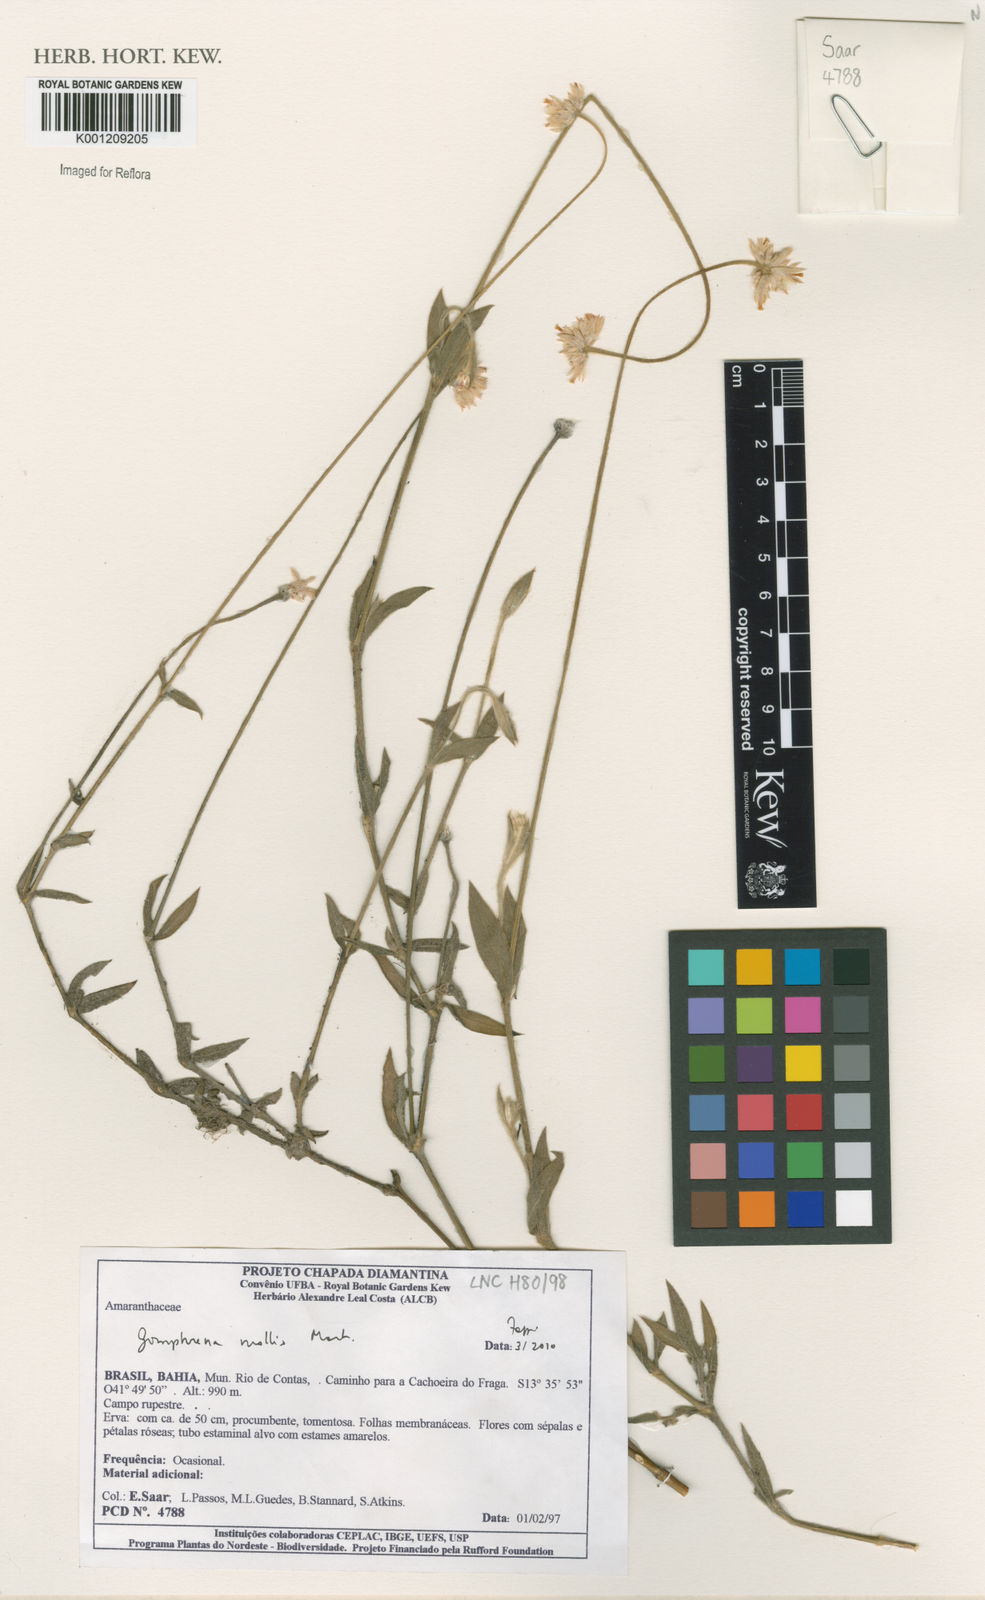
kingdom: Plantae
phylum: Tracheophyta
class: Magnoliopsida
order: Caryophyllales
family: Amaranthaceae
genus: Gomphrena
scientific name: Gomphrena mollis
